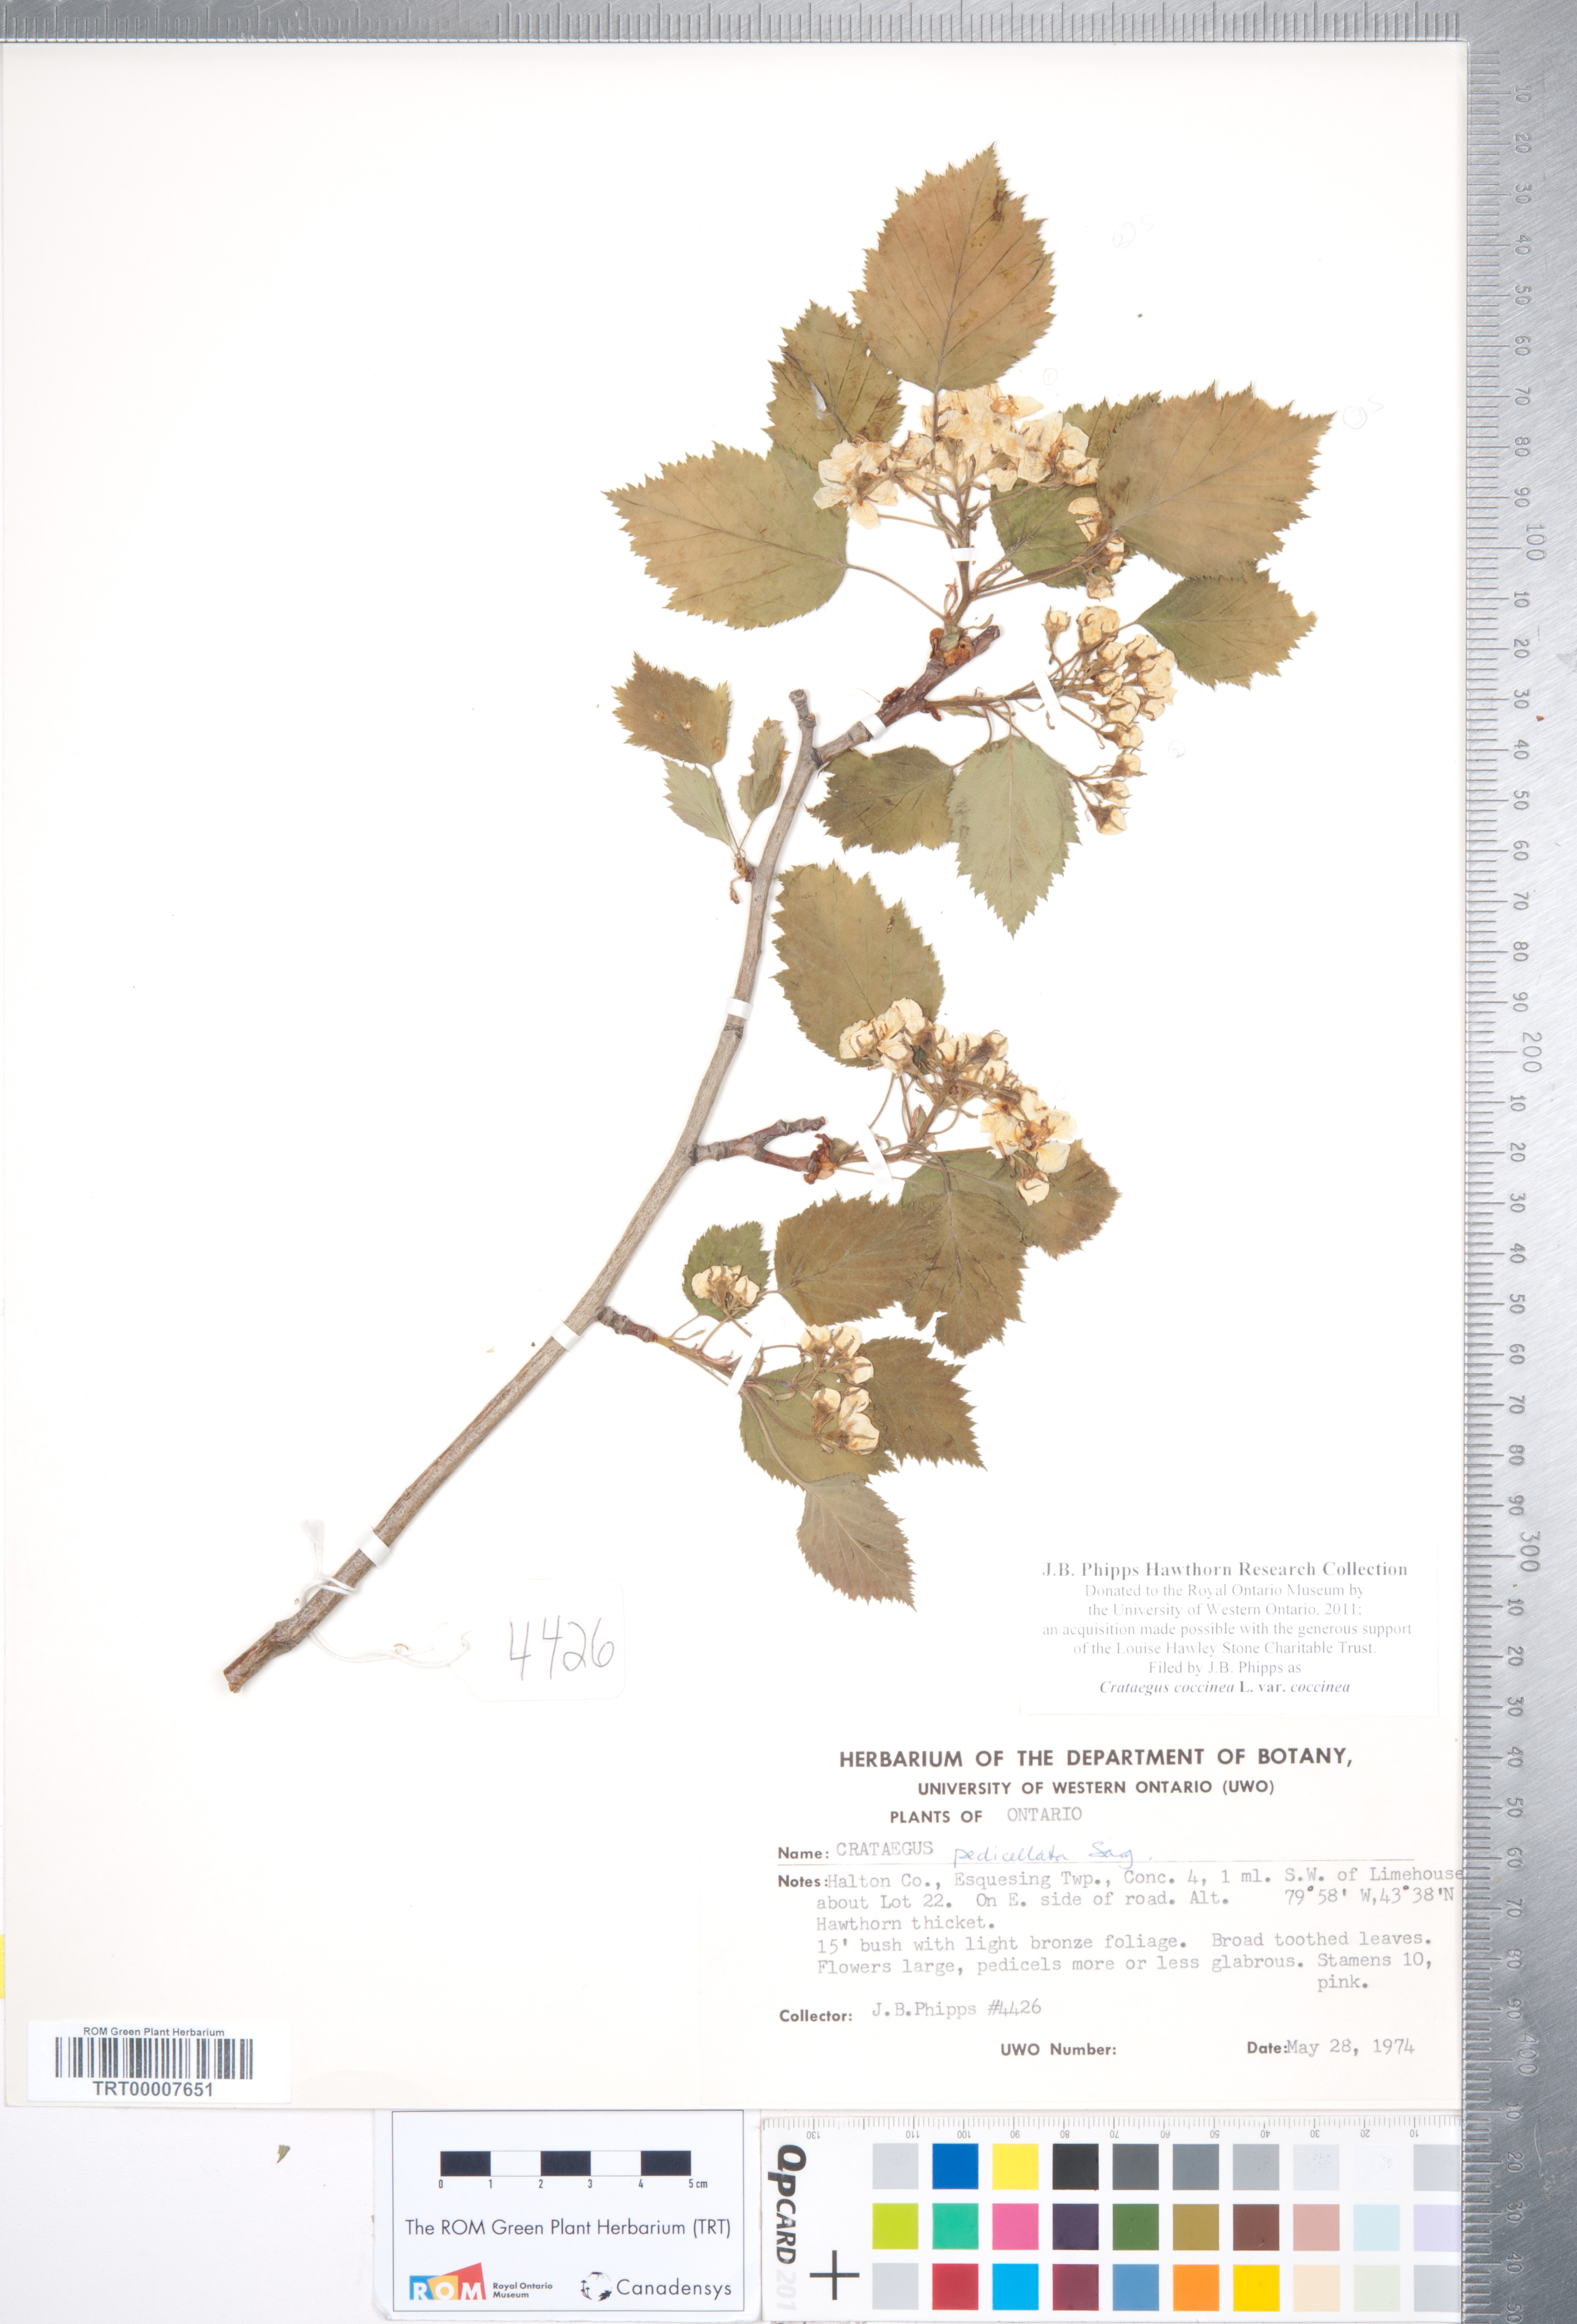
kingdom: Plantae
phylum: Tracheophyta
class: Magnoliopsida
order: Rosales
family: Rosaceae
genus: Crataegus
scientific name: Crataegus coccinea
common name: Scarlet hawthorn
